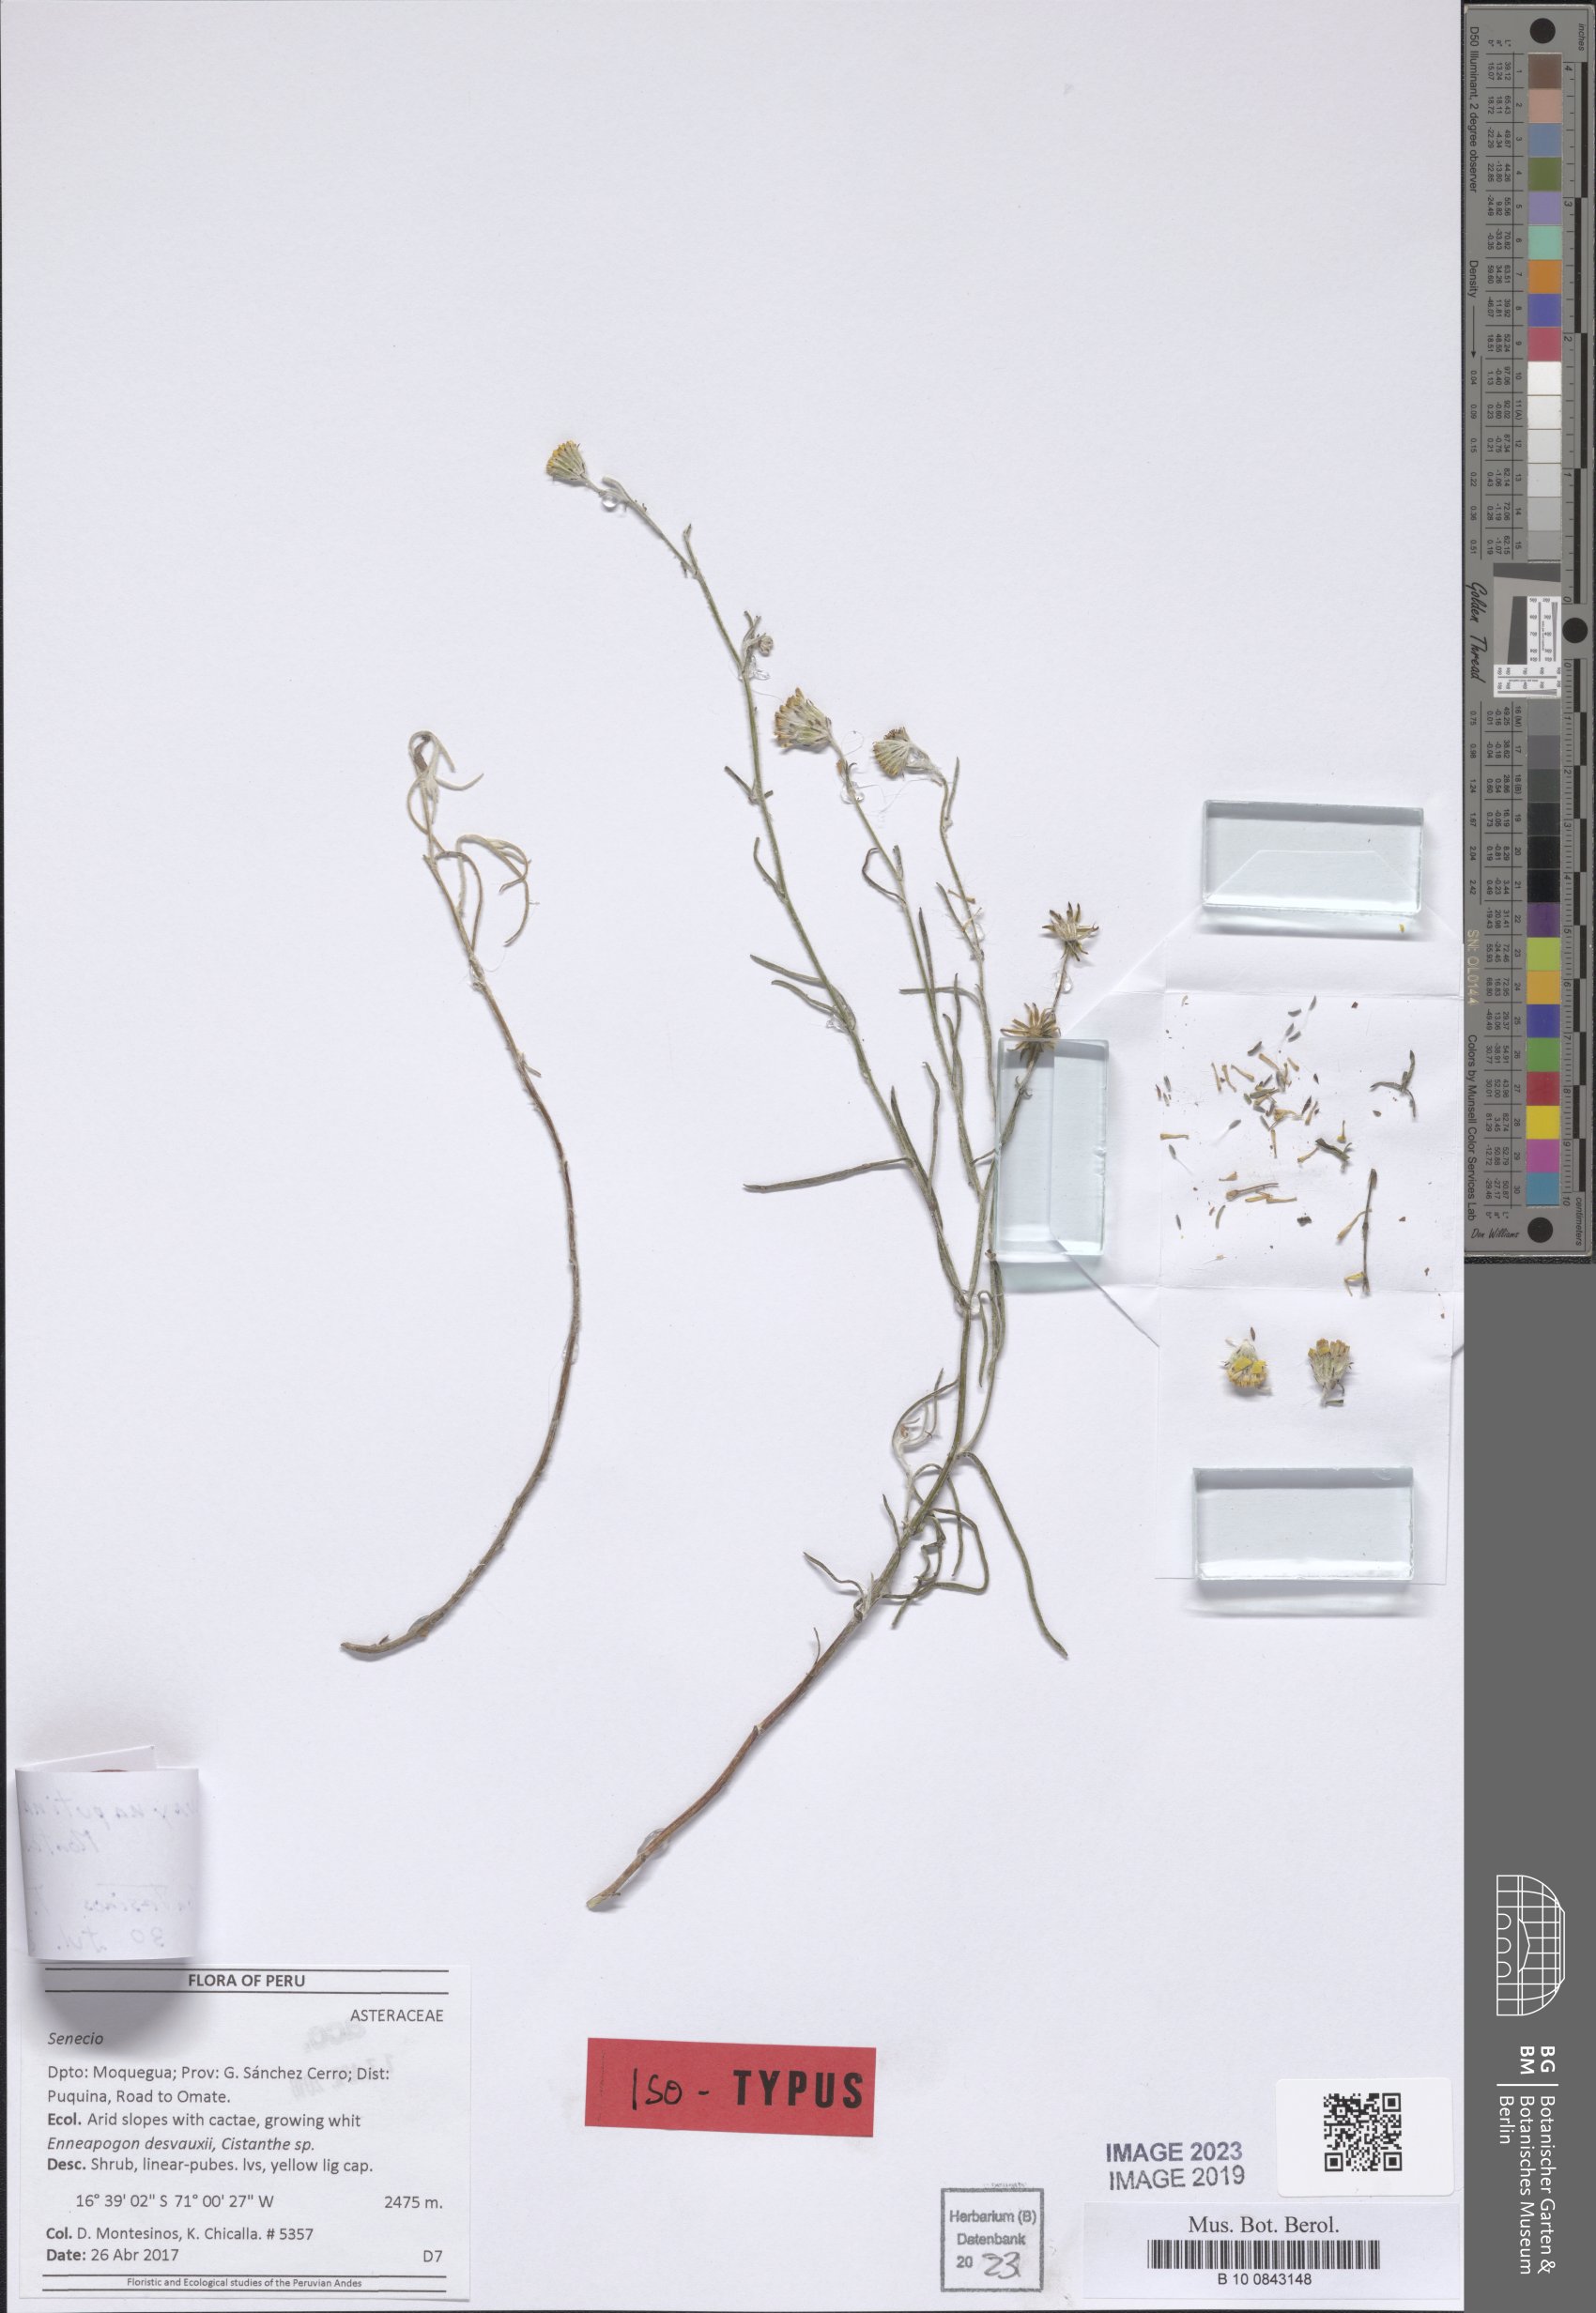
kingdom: Plantae
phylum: Tracheophyta
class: Magnoliopsida
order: Asterales
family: Asteraceae
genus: Senecio
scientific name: Senecio huaynaputinaensis
